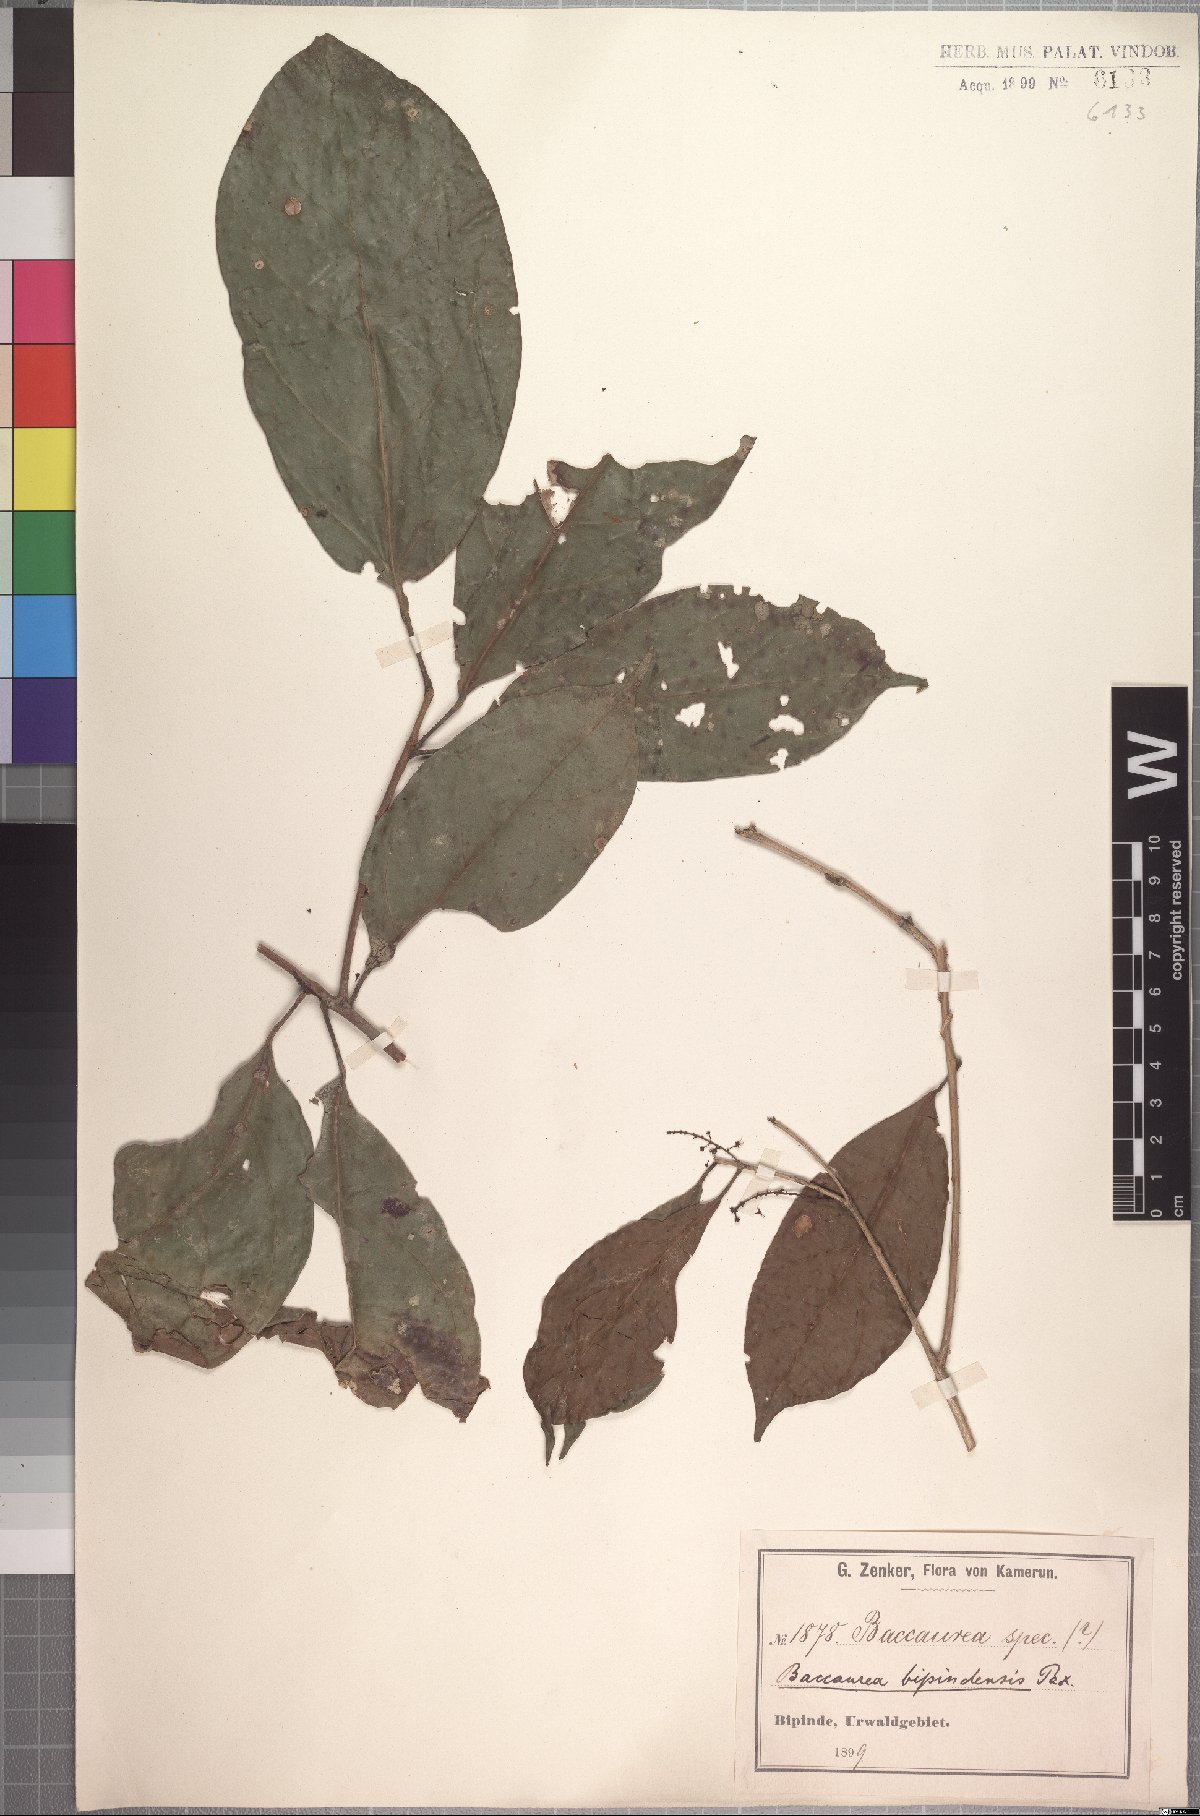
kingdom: Plantae
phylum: Tracheophyta
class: Magnoliopsida
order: Malpighiales
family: Phyllanthaceae
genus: Maesobotrya
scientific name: Maesobotrya griffoniana
